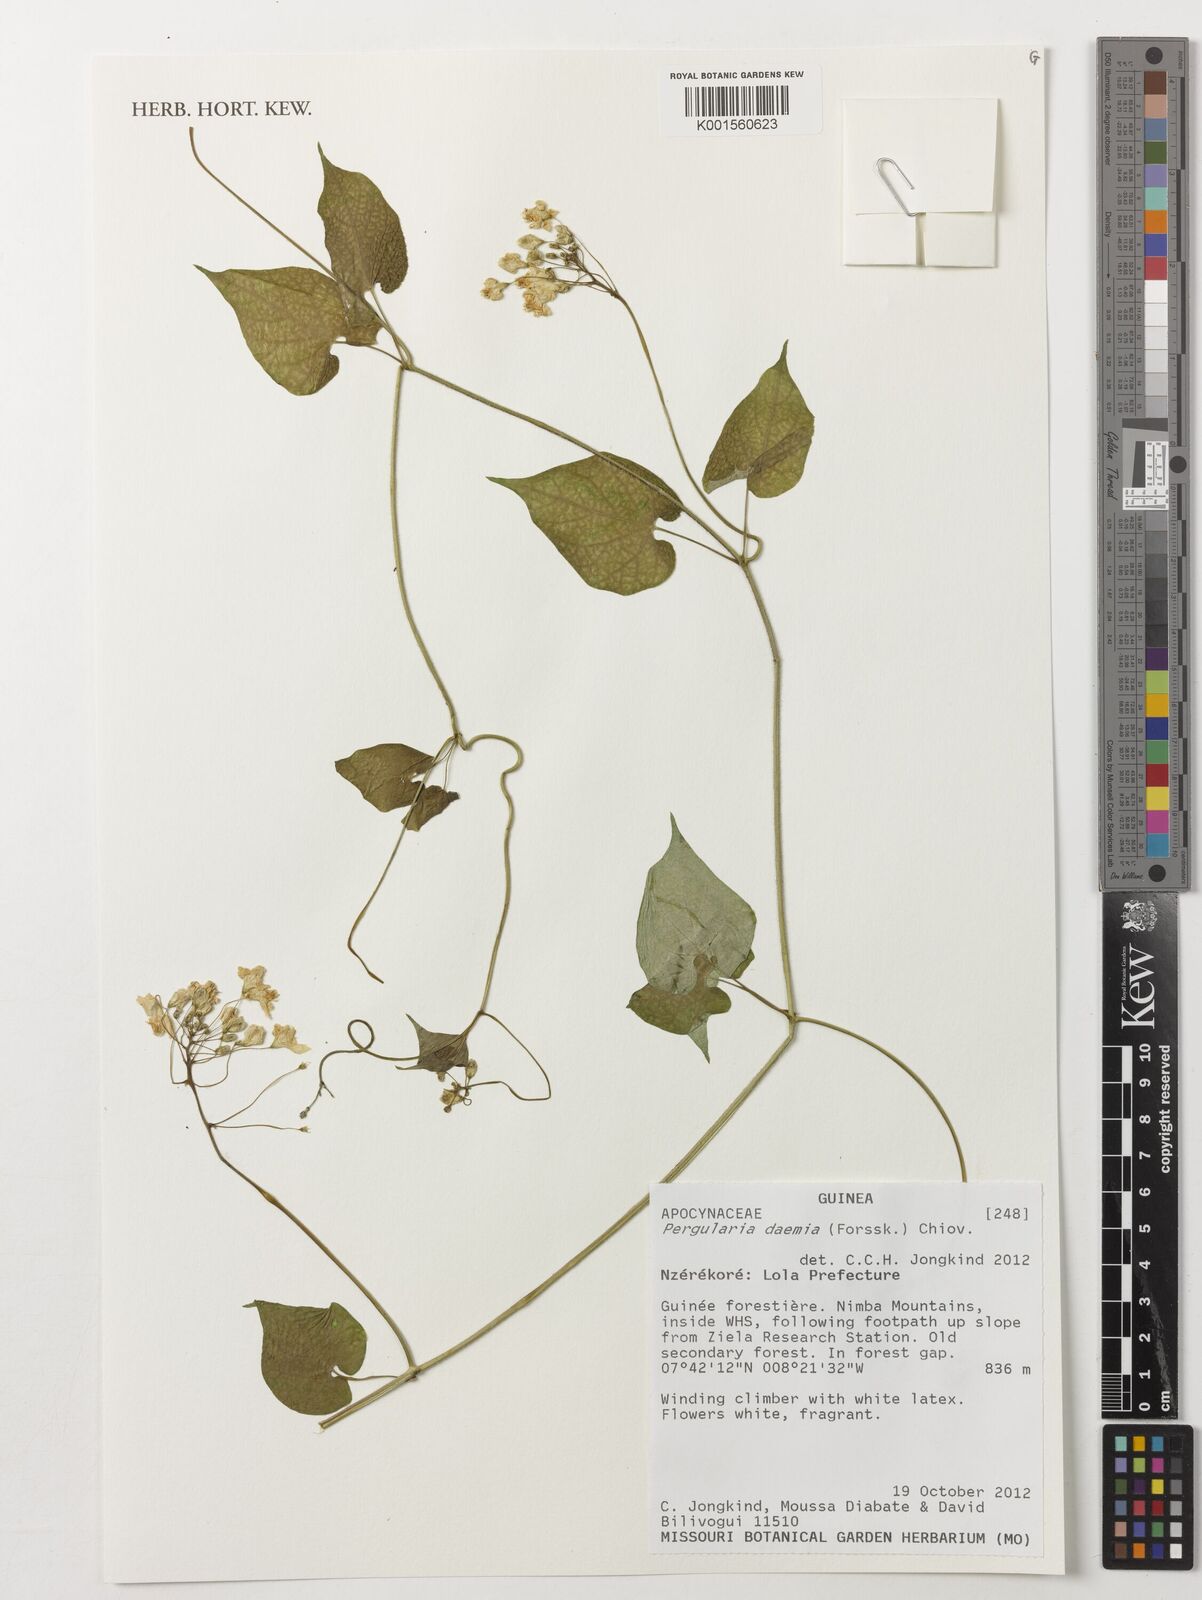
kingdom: Plantae
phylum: Tracheophyta
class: Magnoliopsida
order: Gentianales
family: Apocynaceae
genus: Pergularia
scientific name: Pergularia daemia
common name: Trellis-vine
